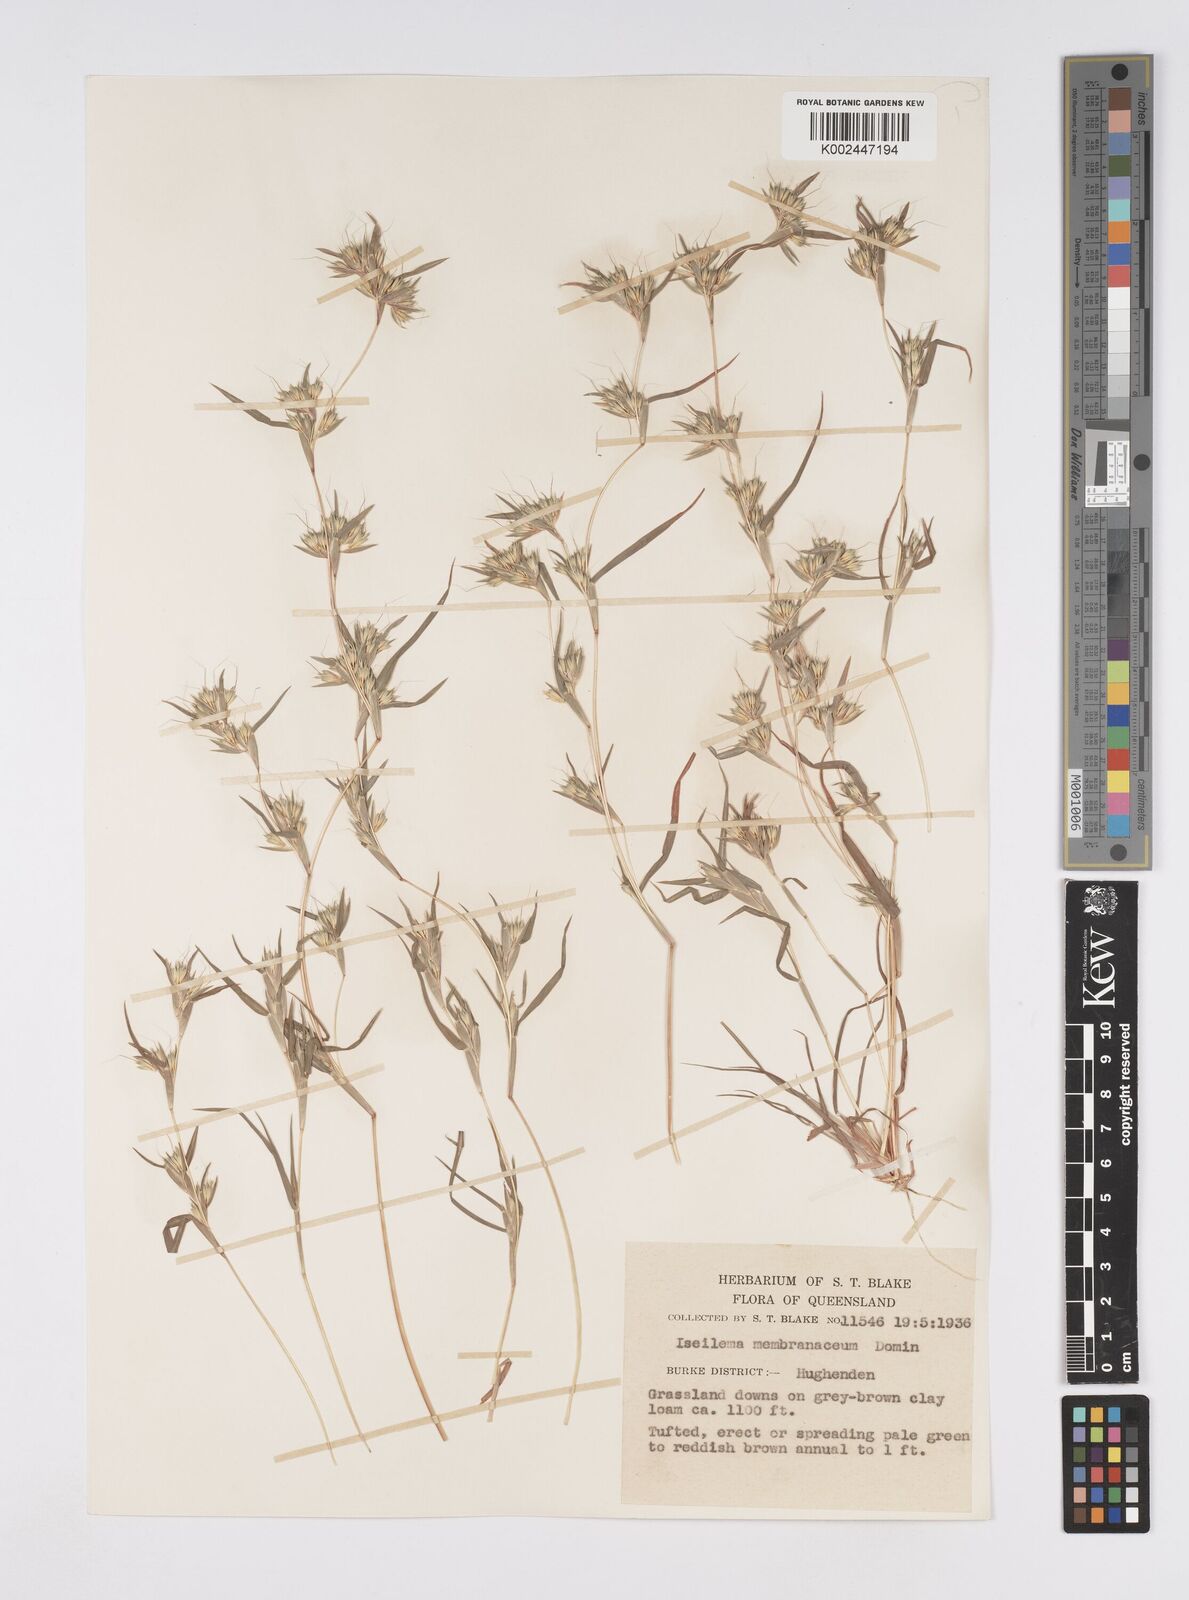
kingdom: Plantae
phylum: Tracheophyta
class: Liliopsida
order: Poales
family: Poaceae
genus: Iseilema
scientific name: Iseilema membranaceum
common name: Small flinders grass
